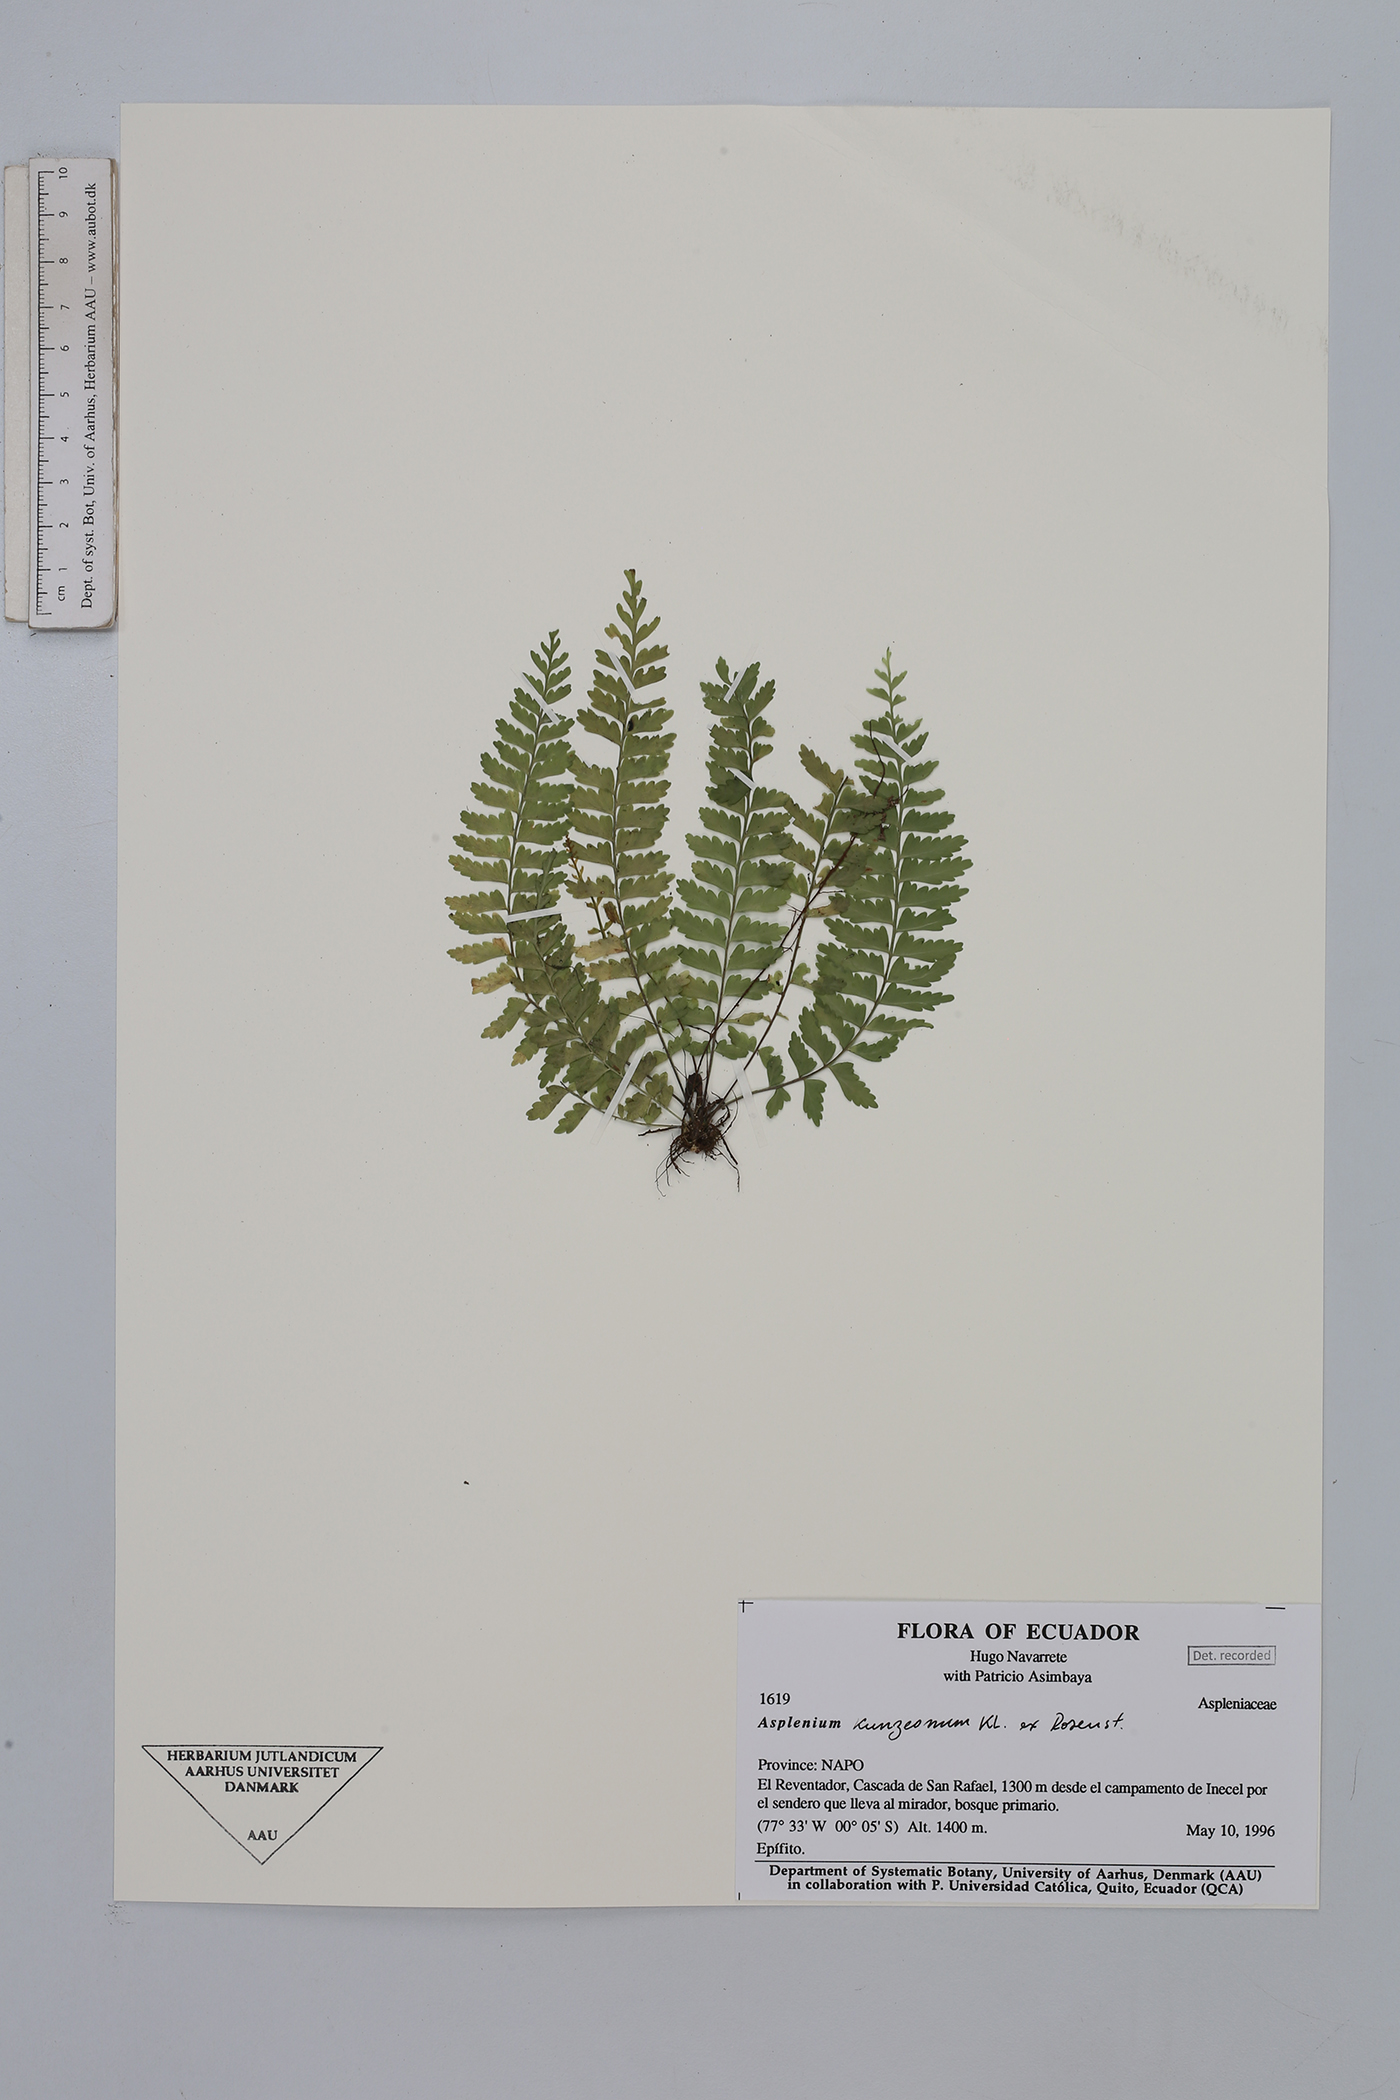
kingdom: Plantae
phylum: Tracheophyta
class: Polypodiopsida
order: Polypodiales
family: Aspleniaceae
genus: Asplenium
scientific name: Asplenium kunzeanum
